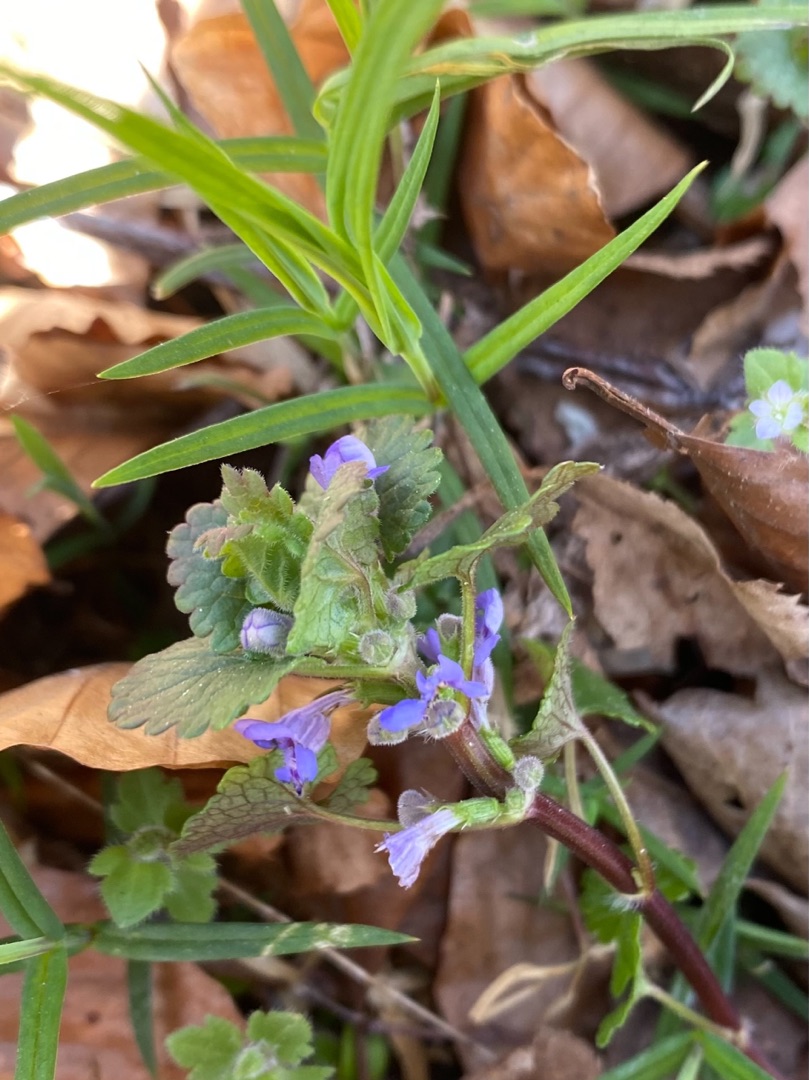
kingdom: Plantae
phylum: Tracheophyta
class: Magnoliopsida
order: Lamiales
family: Lamiaceae
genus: Glechoma
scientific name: Glechoma hederacea
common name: Korsknap
